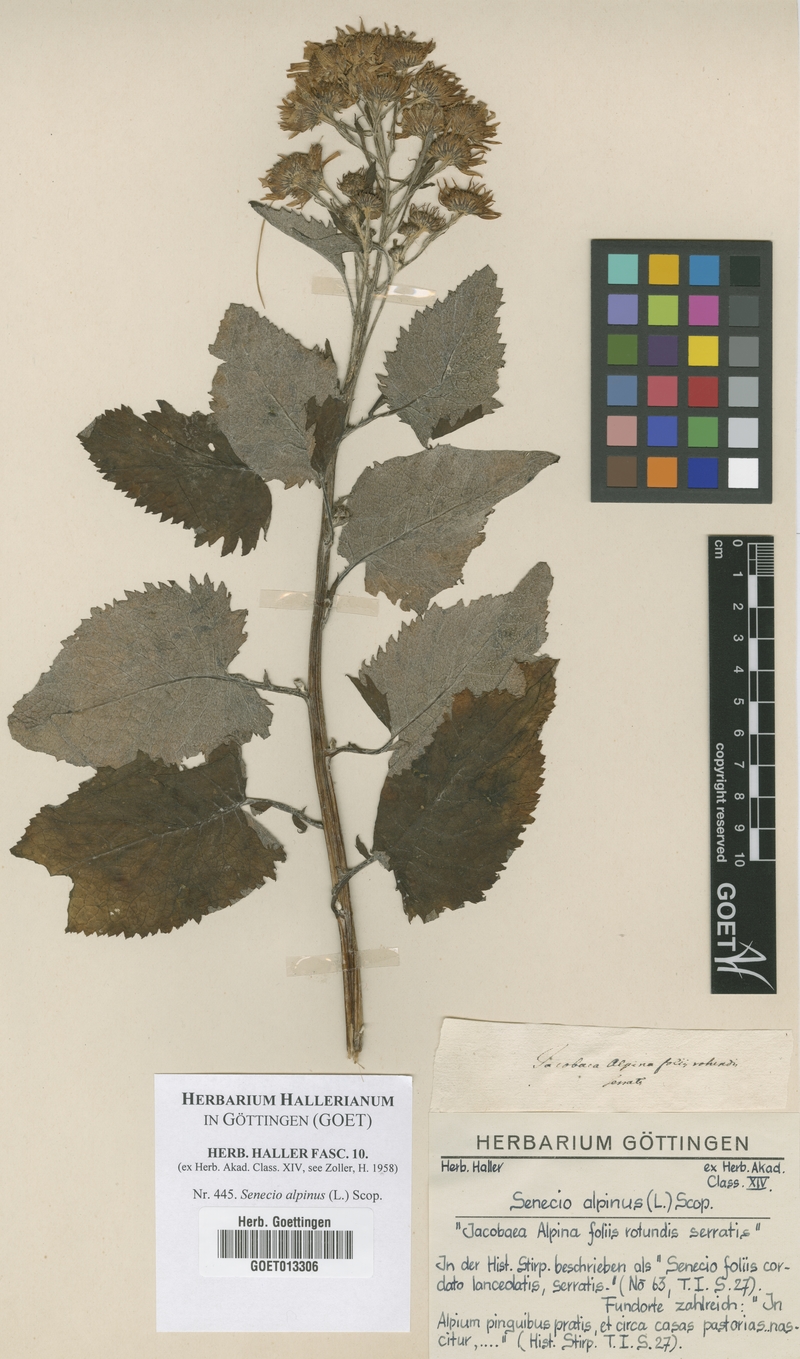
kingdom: Plantae
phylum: Tracheophyta
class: Magnoliopsida
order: Asterales
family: Asteraceae
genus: Jacobaea
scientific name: Jacobaea alpina
